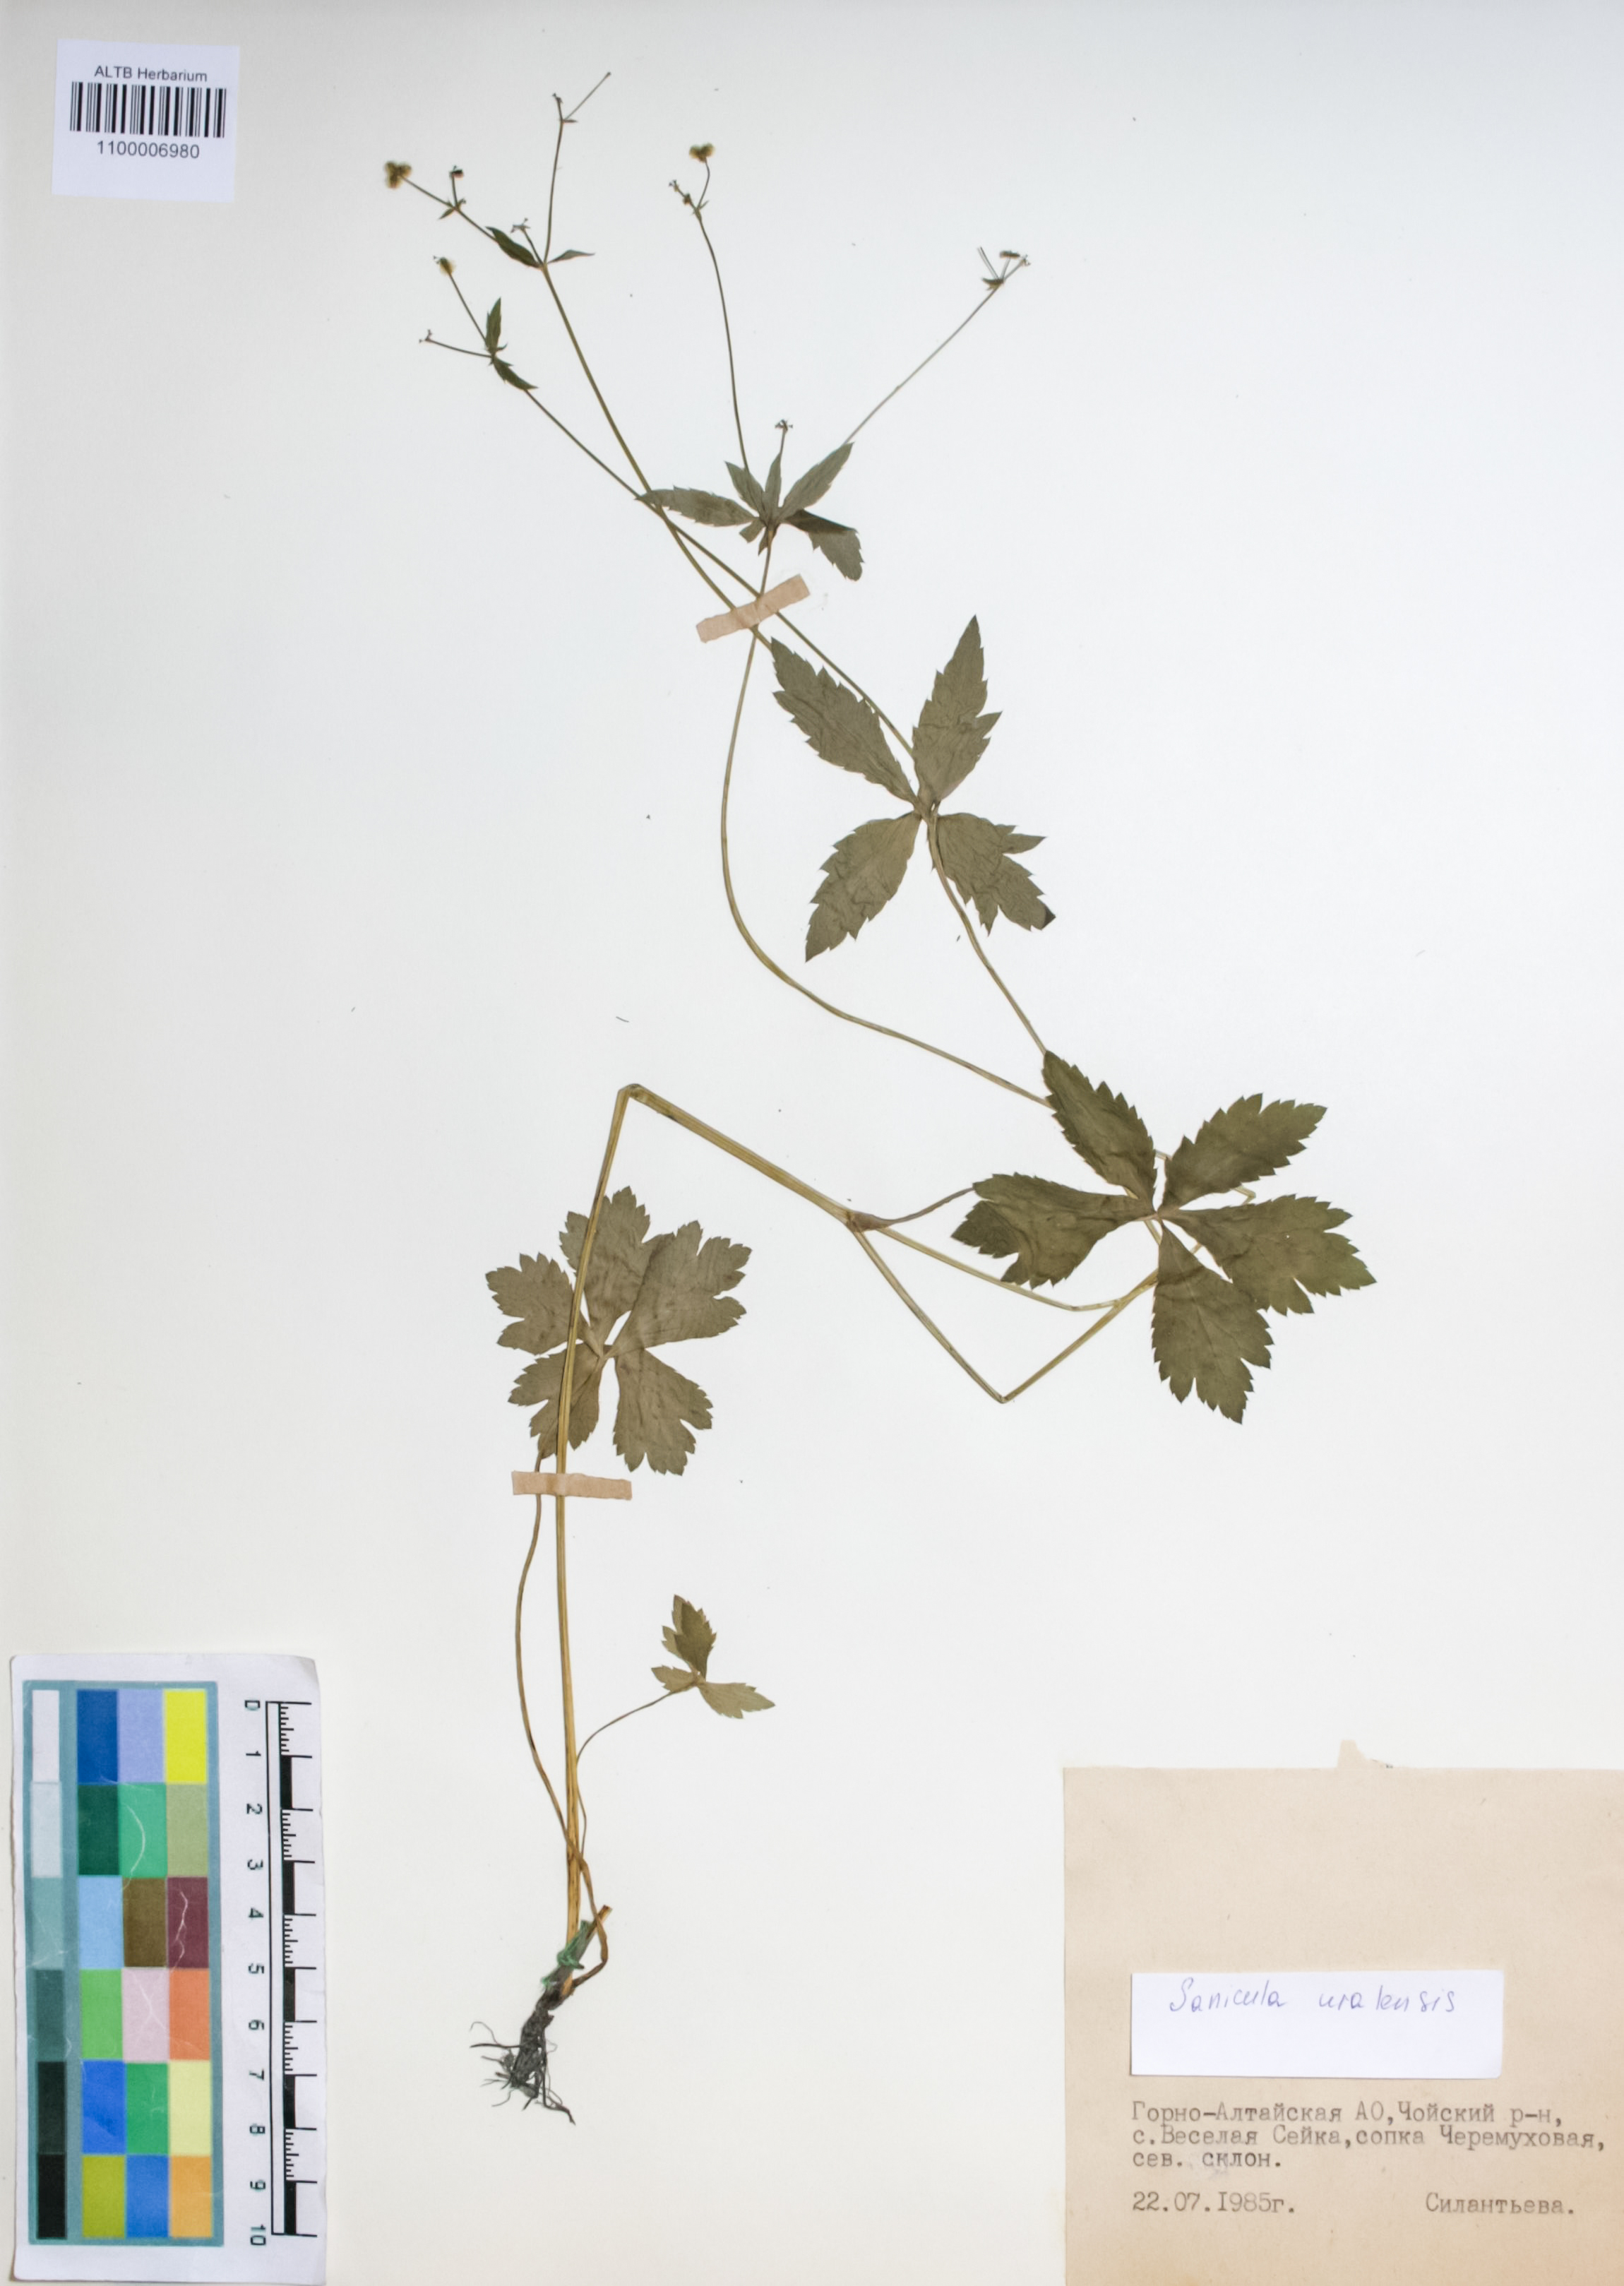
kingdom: Plantae
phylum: Tracheophyta
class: Magnoliopsida
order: Apiales
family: Apiaceae
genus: Sanicula
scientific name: Sanicula giraldii
